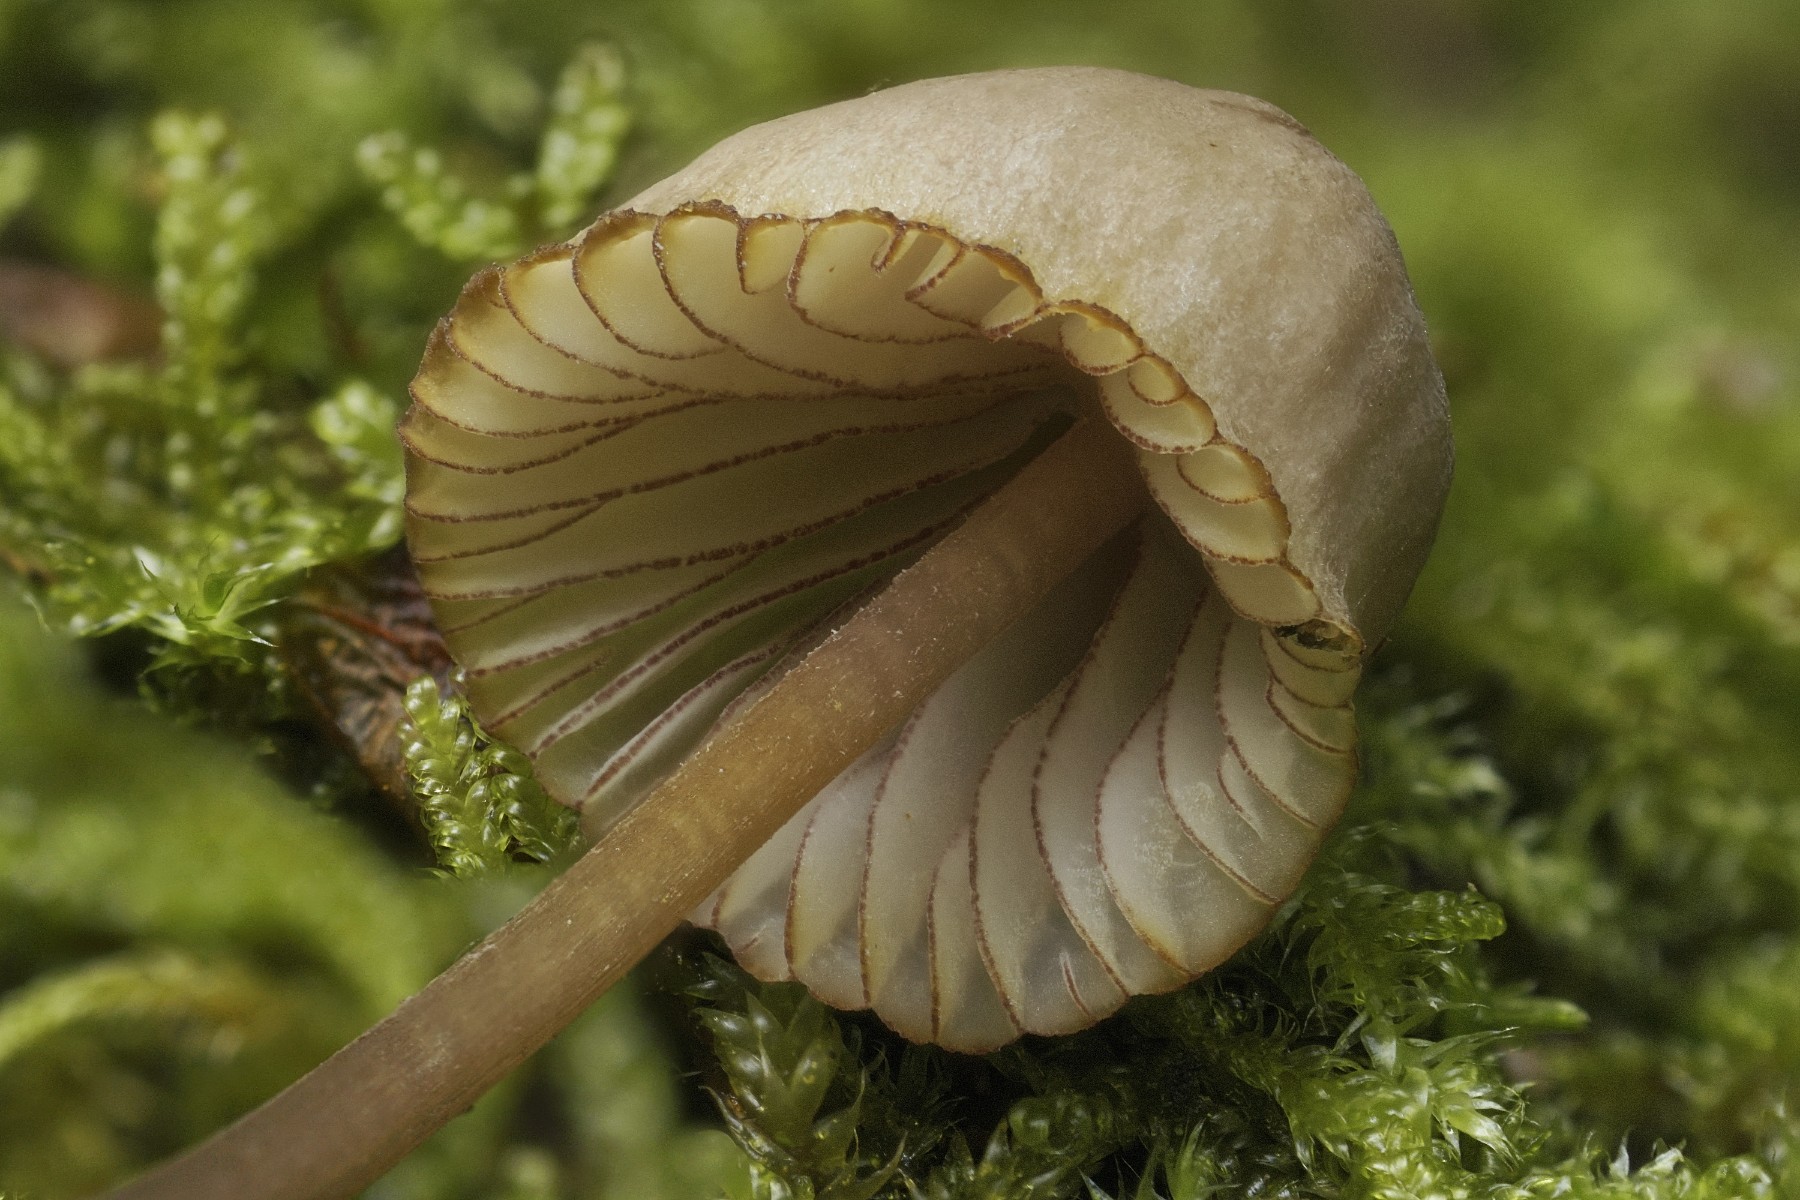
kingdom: Fungi
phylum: Basidiomycota
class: Agaricomycetes
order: Agaricales
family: Mycenaceae
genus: Mycena
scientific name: Mycena rubromarginata
